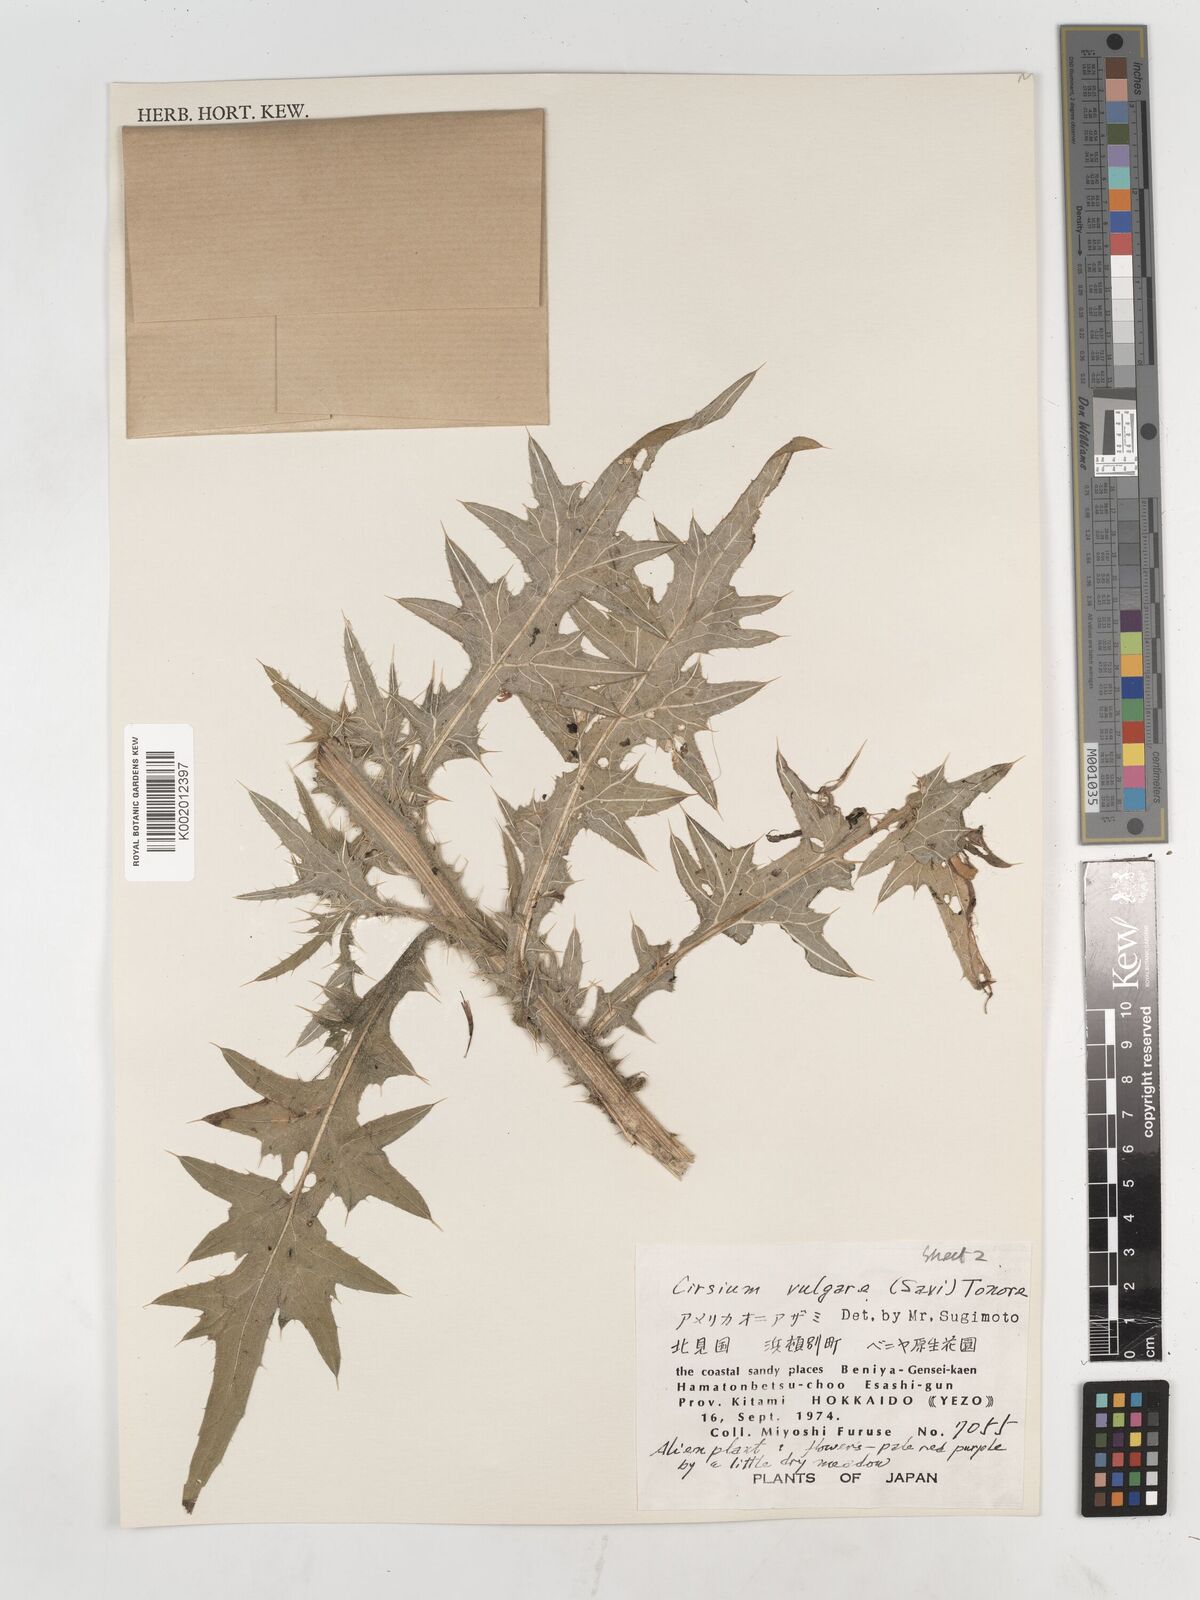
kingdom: Plantae
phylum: Tracheophyta
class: Magnoliopsida
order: Asterales
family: Asteraceae
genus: Cirsium
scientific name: Cirsium vulgare
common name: Bull thistle
